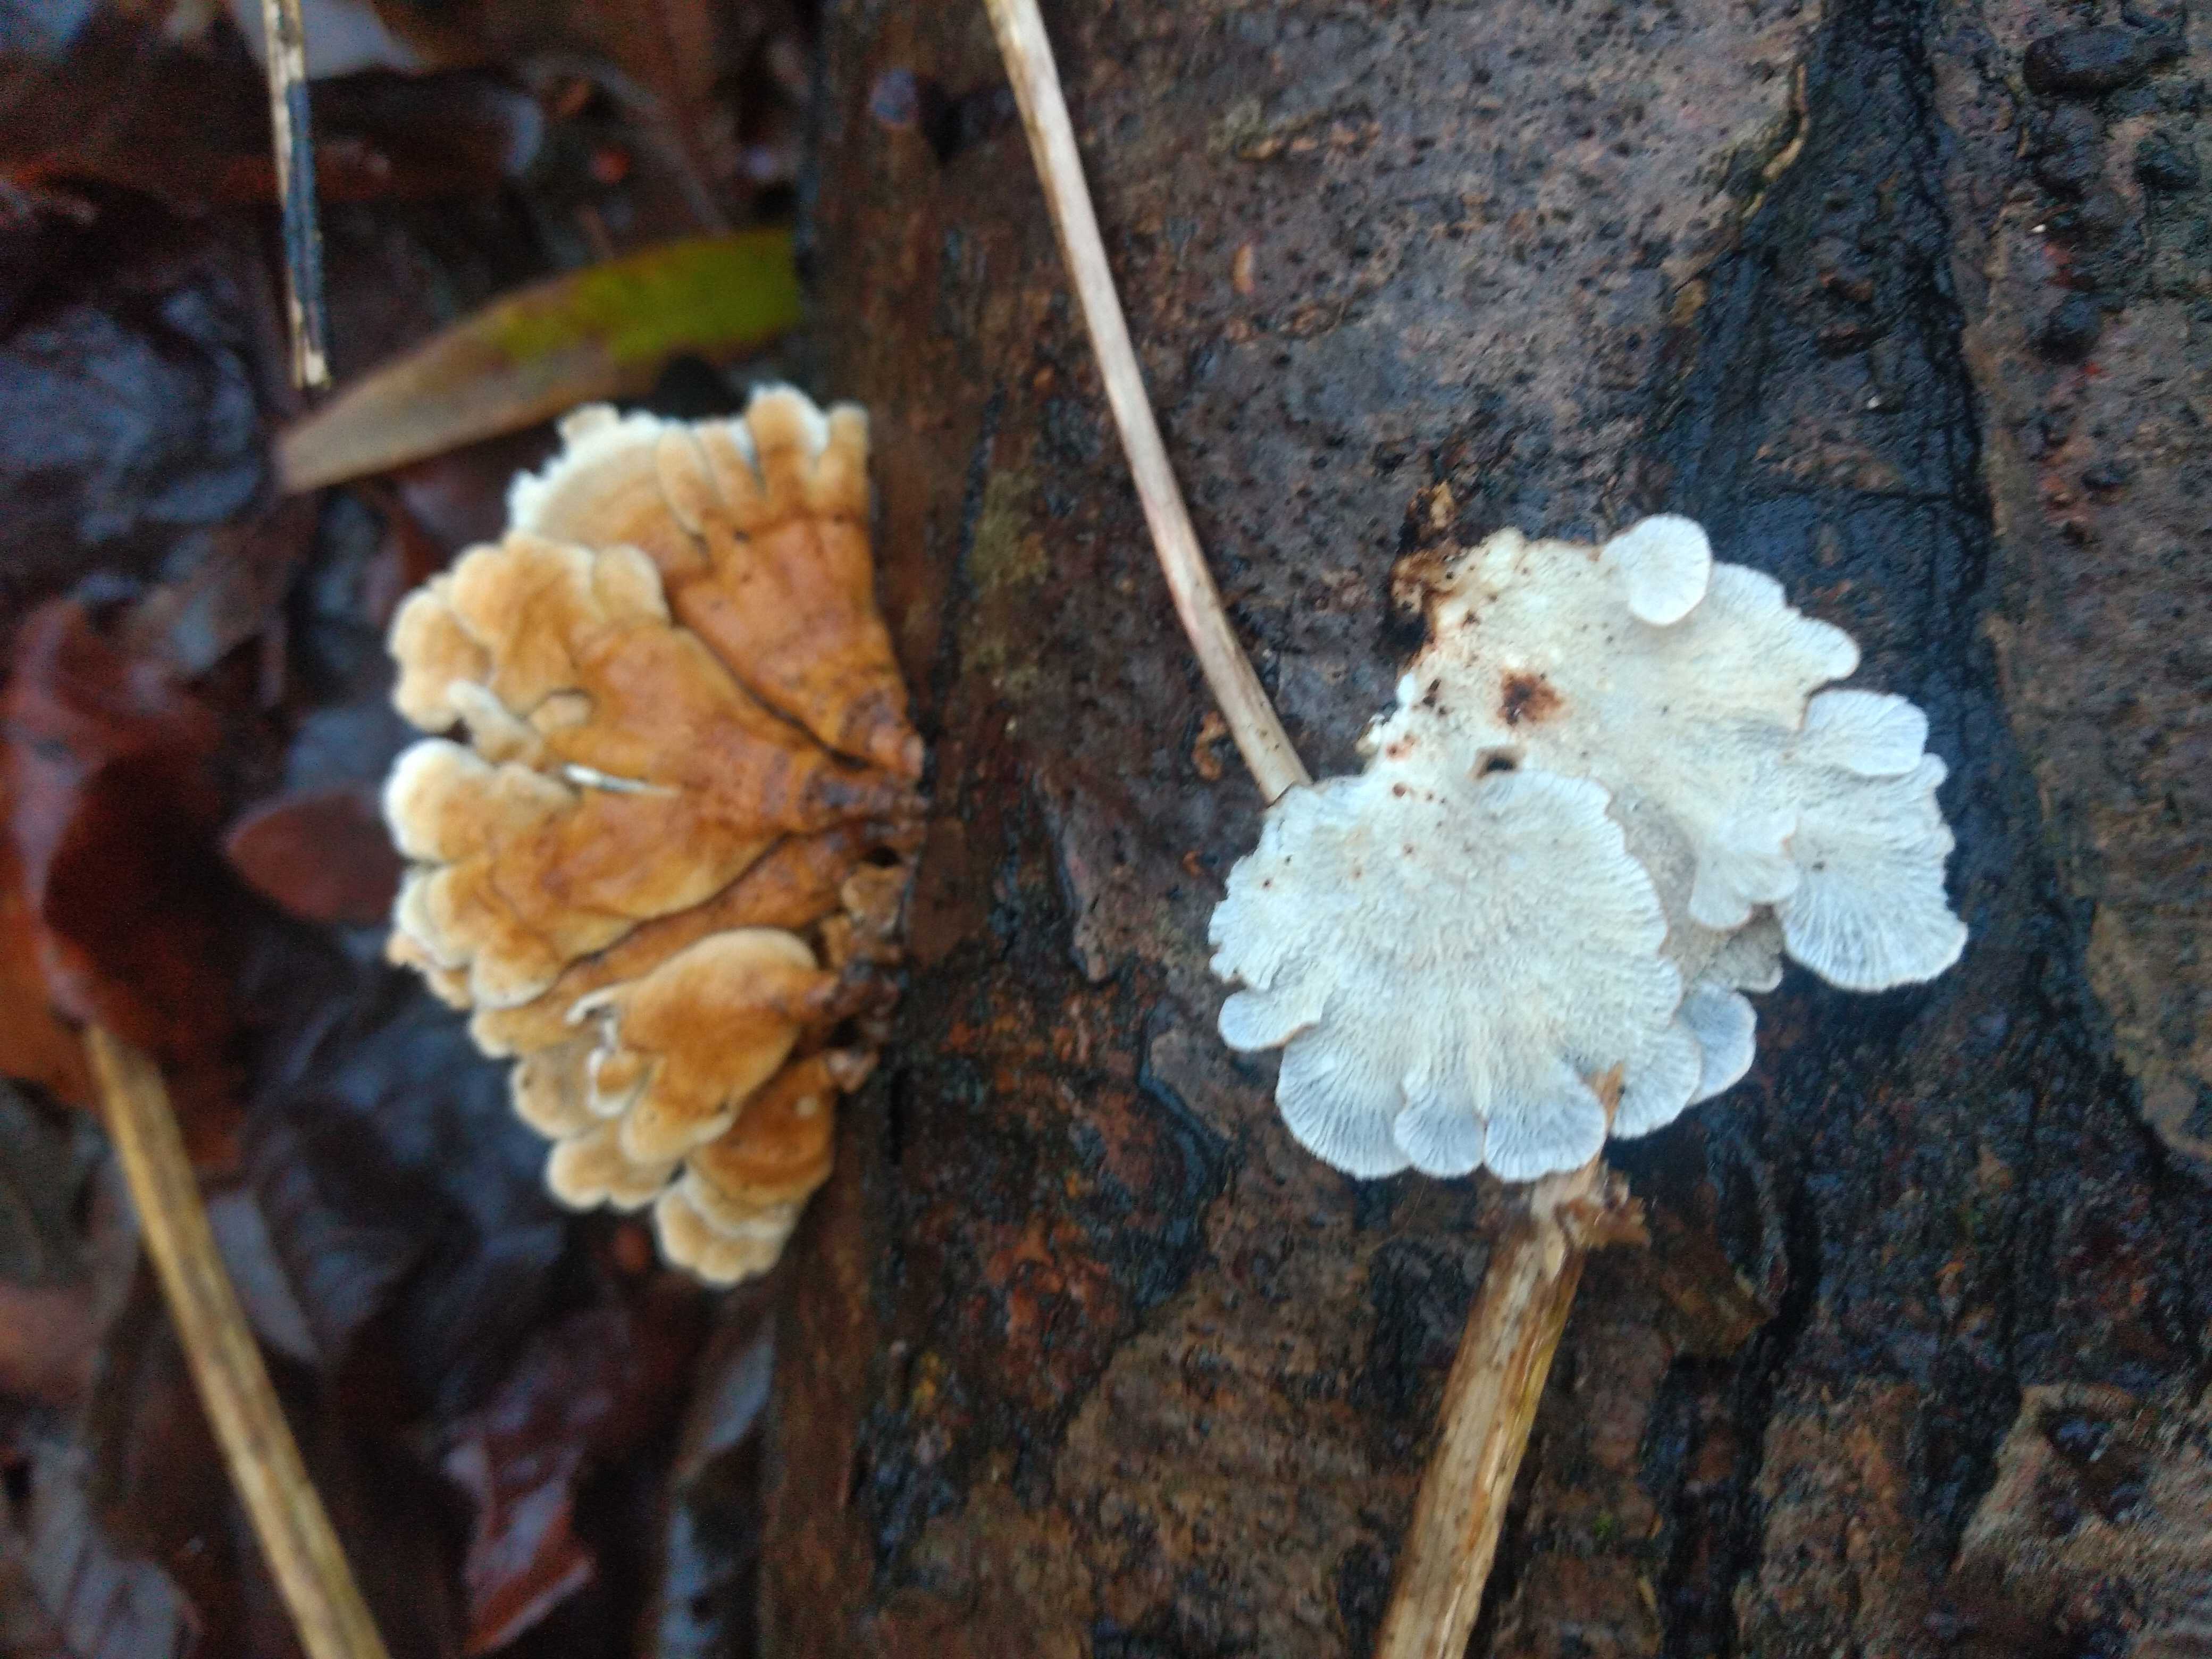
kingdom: Fungi
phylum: Basidiomycota
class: Agaricomycetes
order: Amylocorticiales
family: Amylocorticiaceae
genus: Plicaturopsis
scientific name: Plicaturopsis crispa
